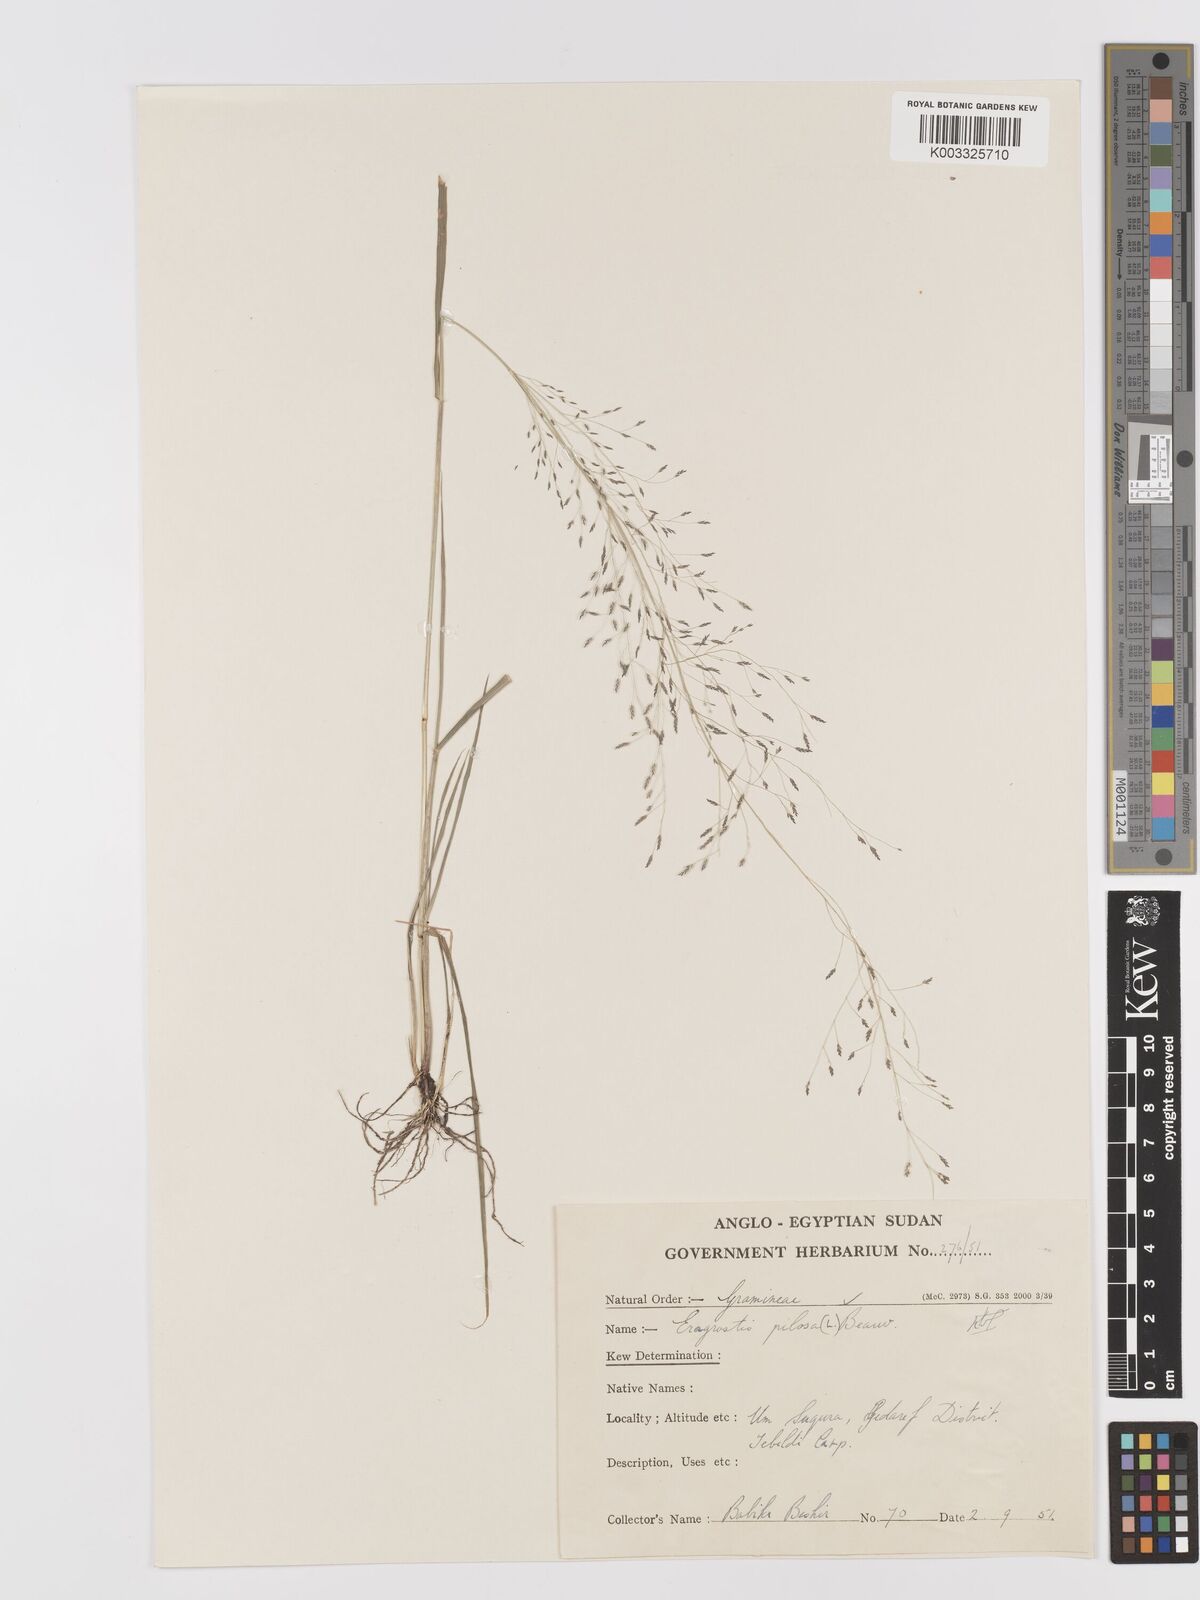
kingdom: Plantae
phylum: Tracheophyta
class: Liliopsida
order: Poales
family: Poaceae
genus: Eragrostis
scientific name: Eragrostis pilosa
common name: Indian lovegrass
